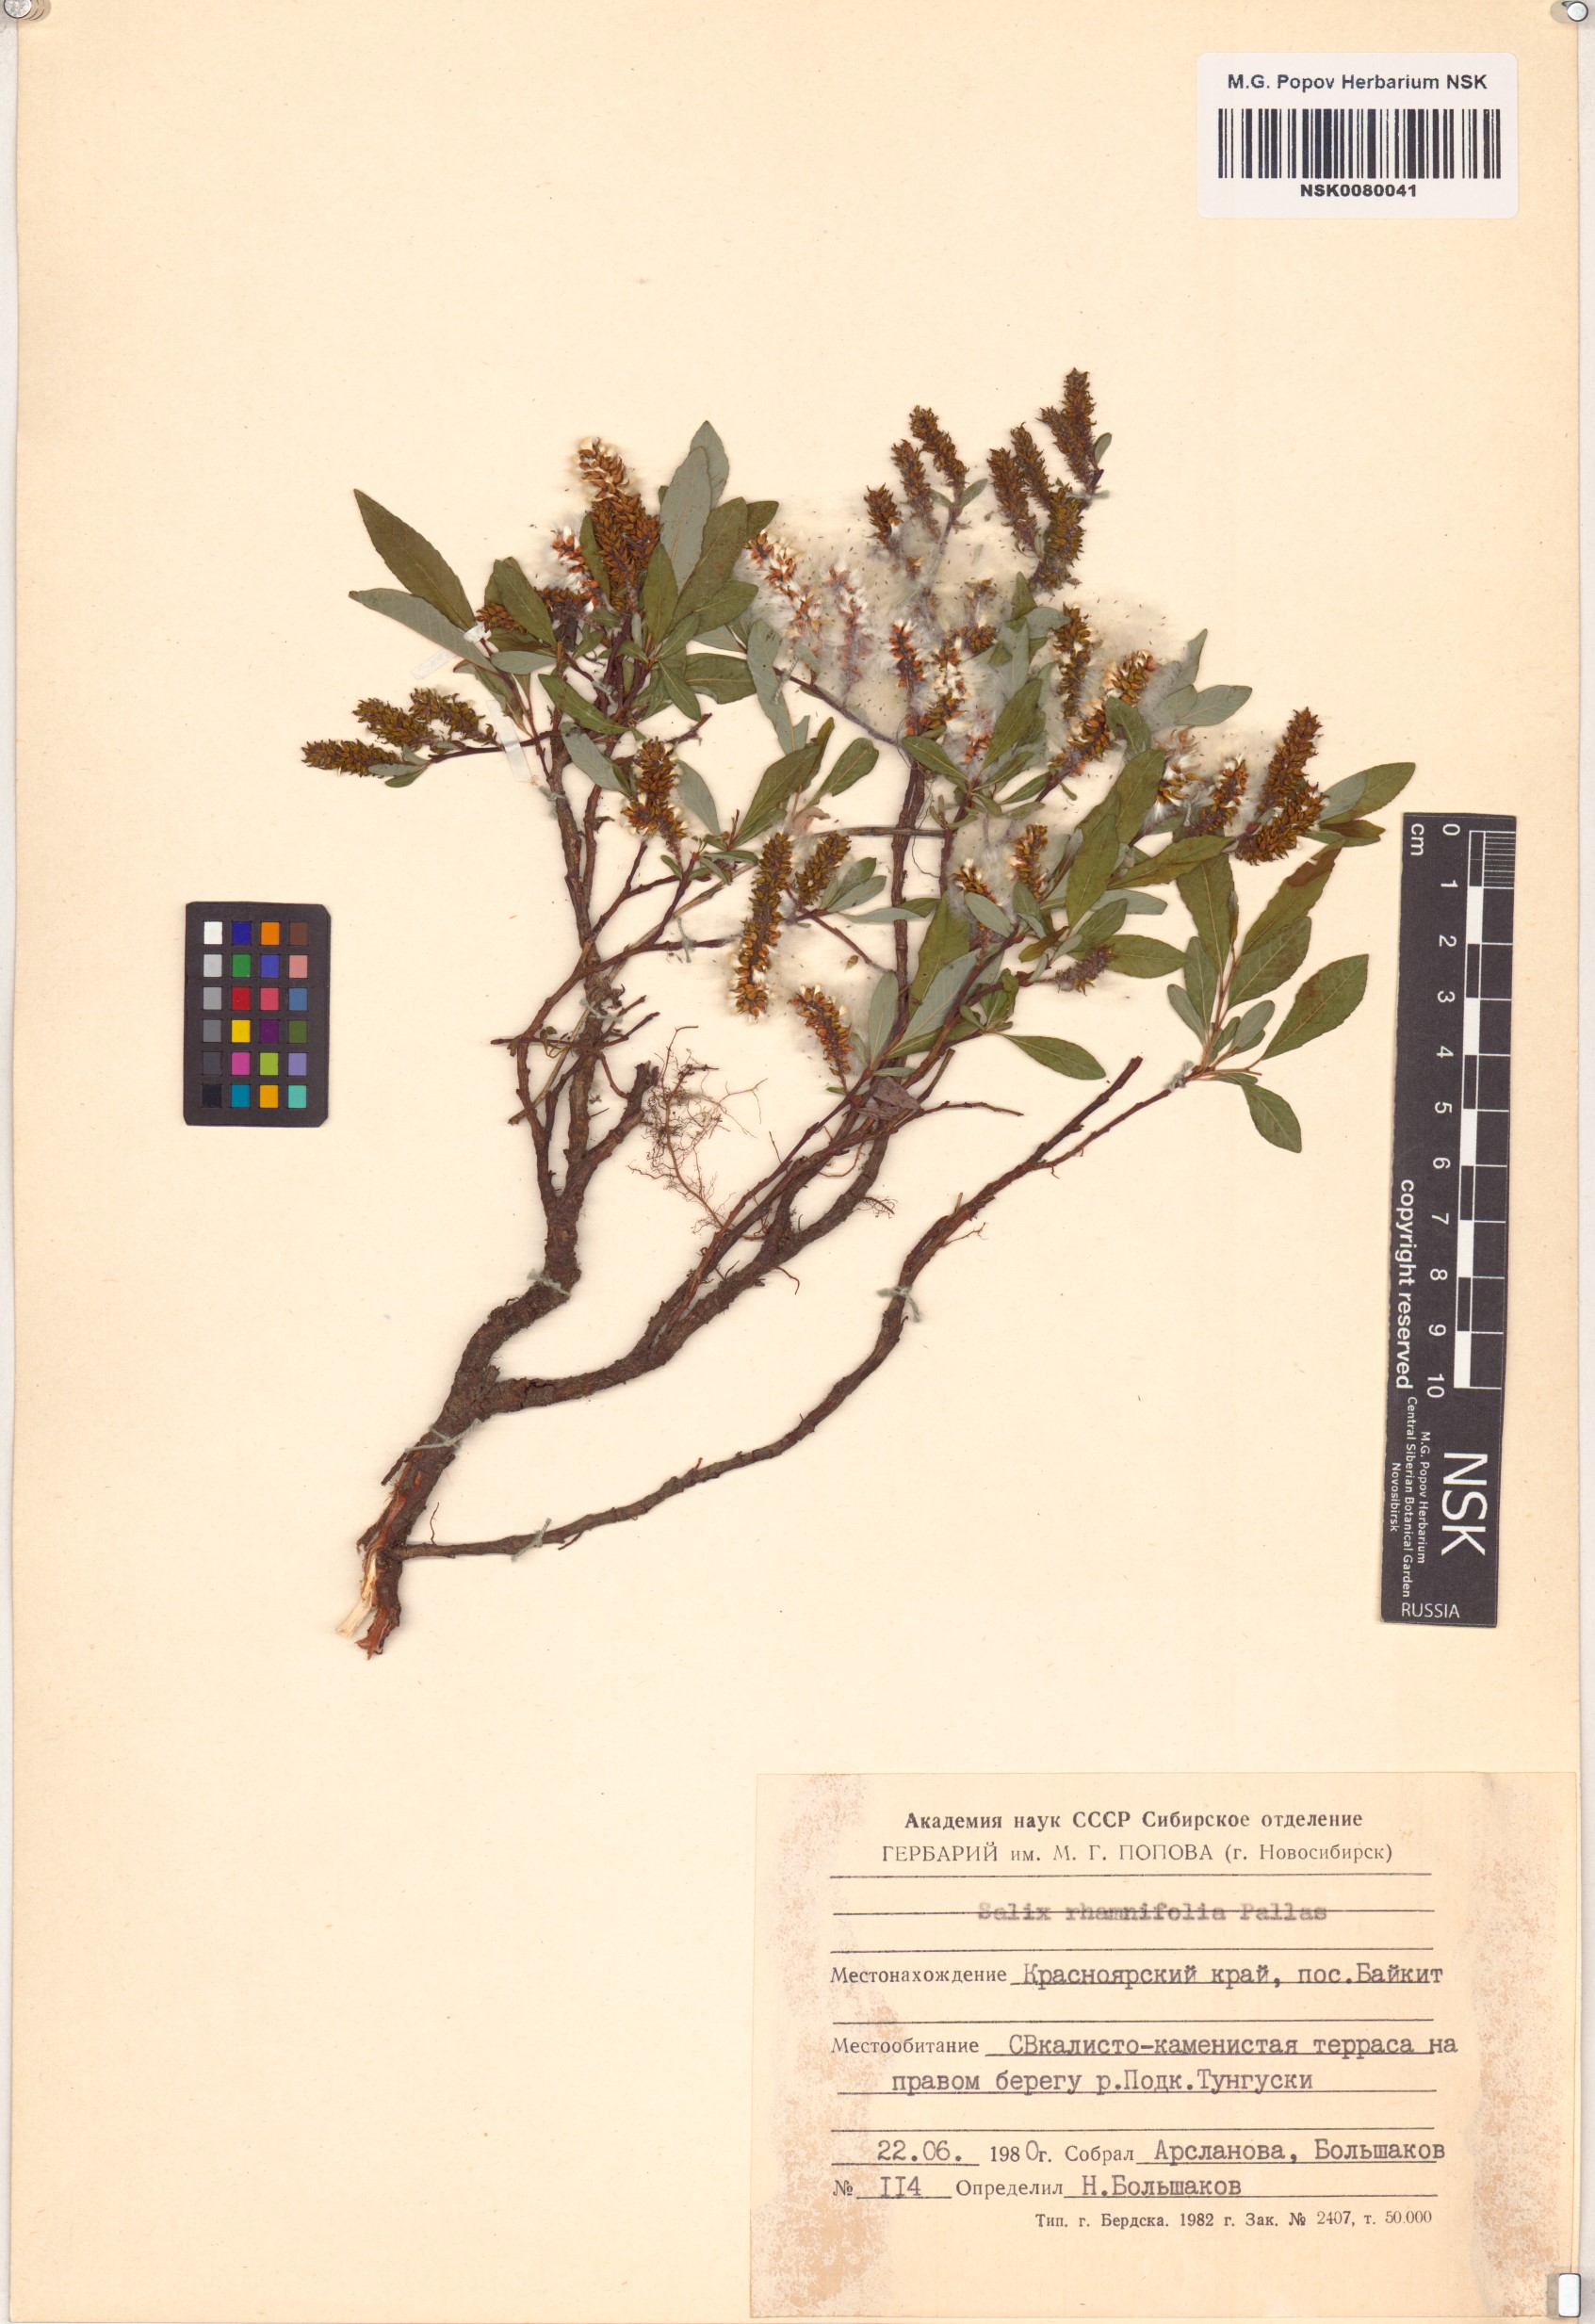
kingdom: Plantae
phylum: Tracheophyta
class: Magnoliopsida
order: Malpighiales
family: Salicaceae
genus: Salix
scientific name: Salix rhamnifolia
